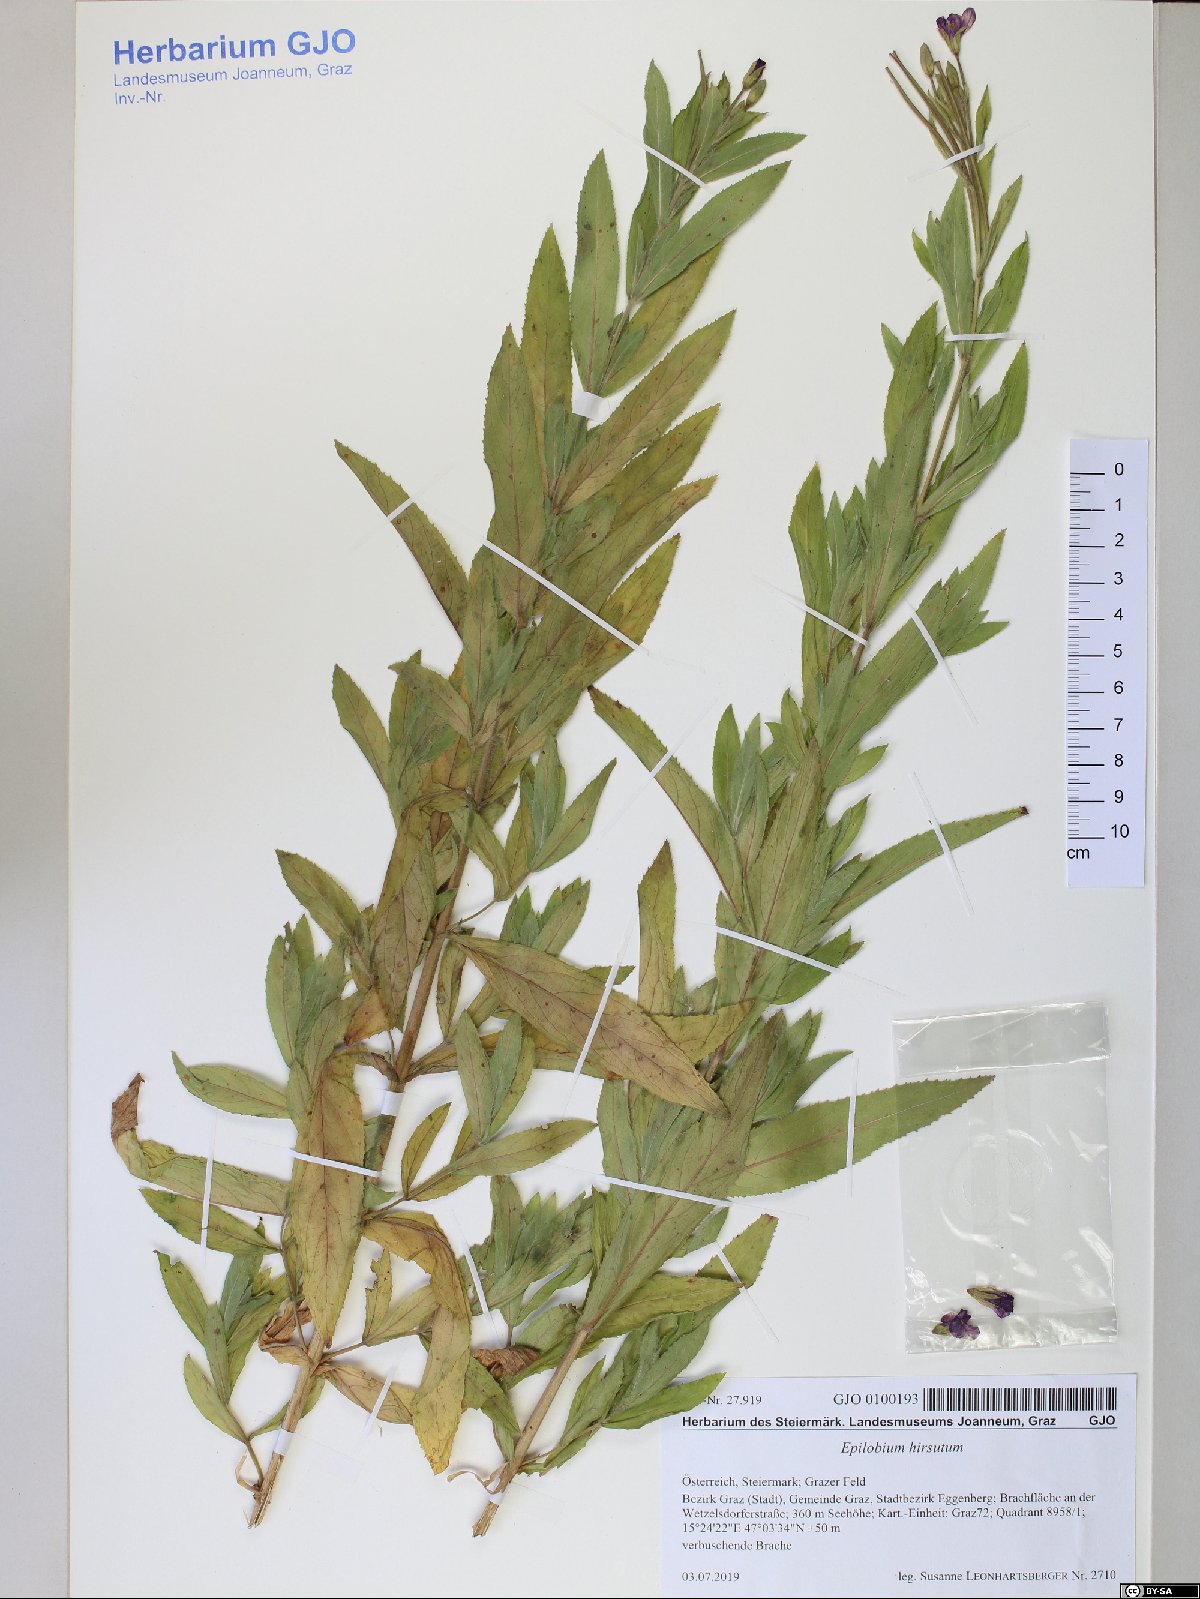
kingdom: Plantae
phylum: Tracheophyta
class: Magnoliopsida
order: Myrtales
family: Onagraceae
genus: Epilobium
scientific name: Epilobium hirsutum
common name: Great willowherb
